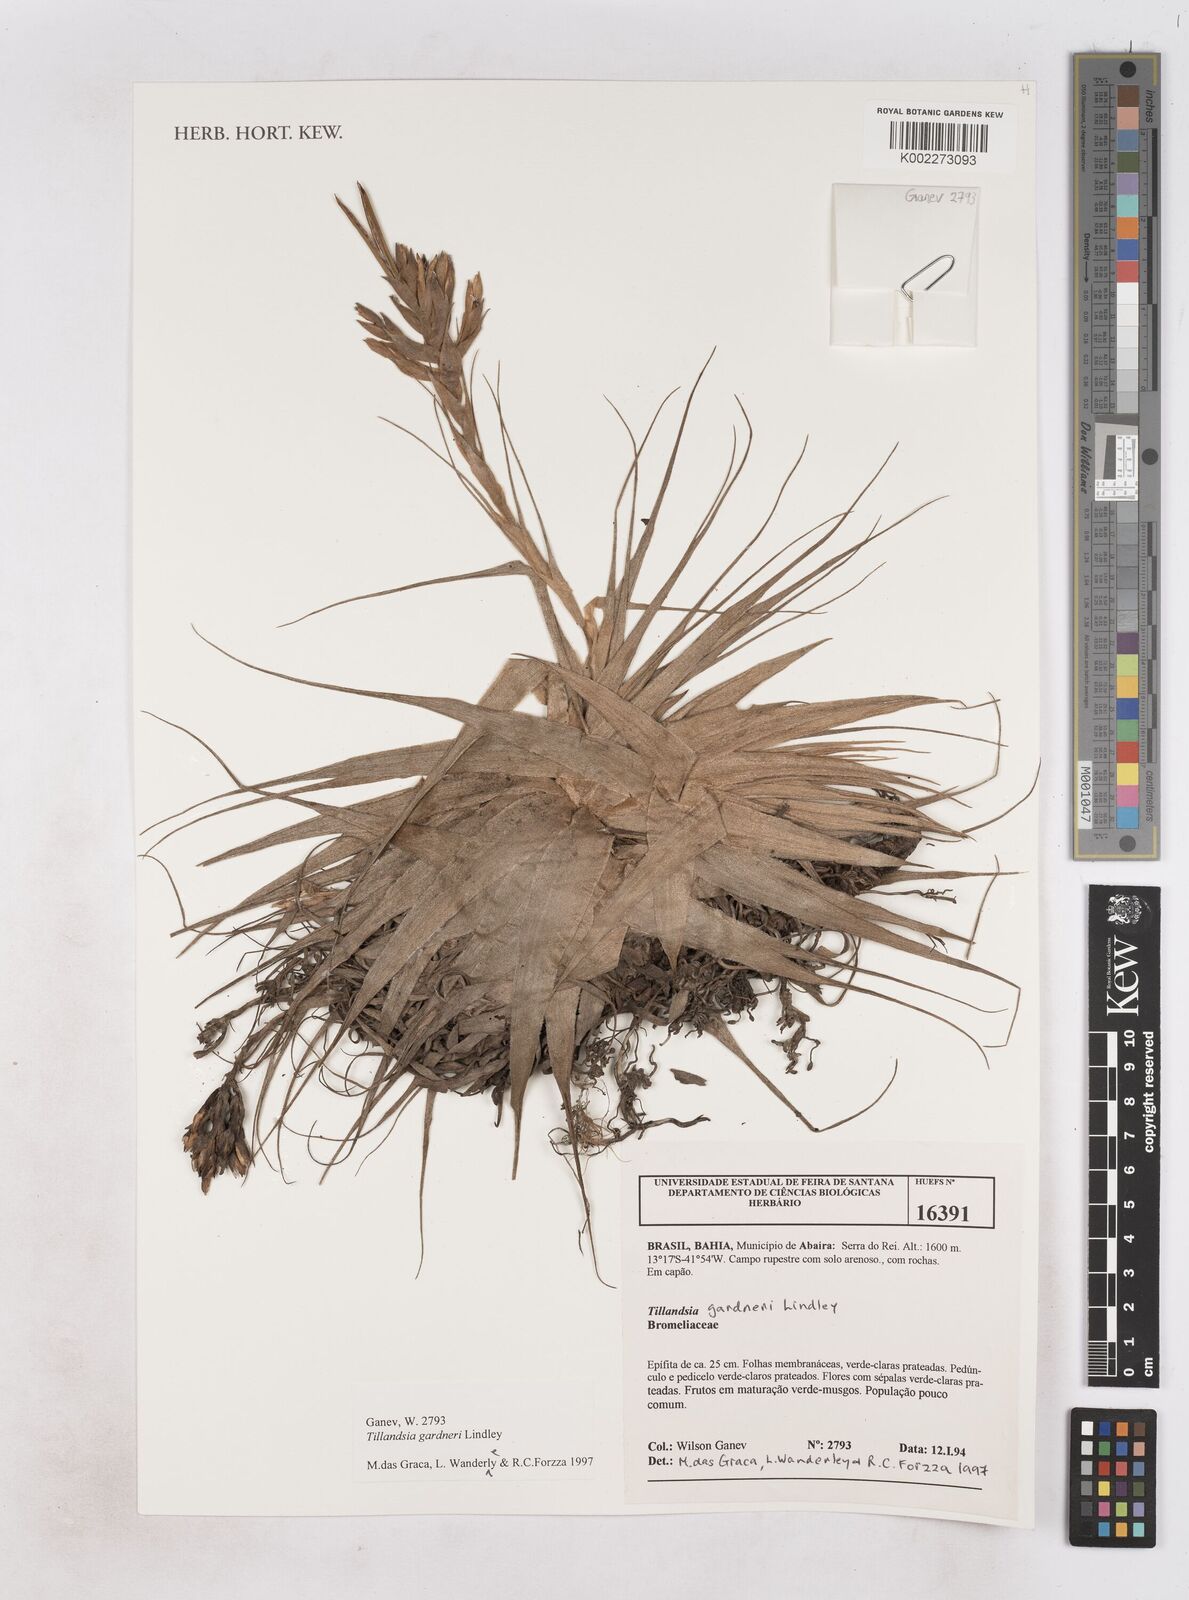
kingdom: Plantae
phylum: Tracheophyta
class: Liliopsida
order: Poales
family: Bromeliaceae
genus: Tillandsia
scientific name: Tillandsia gardneri
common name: Airplant
